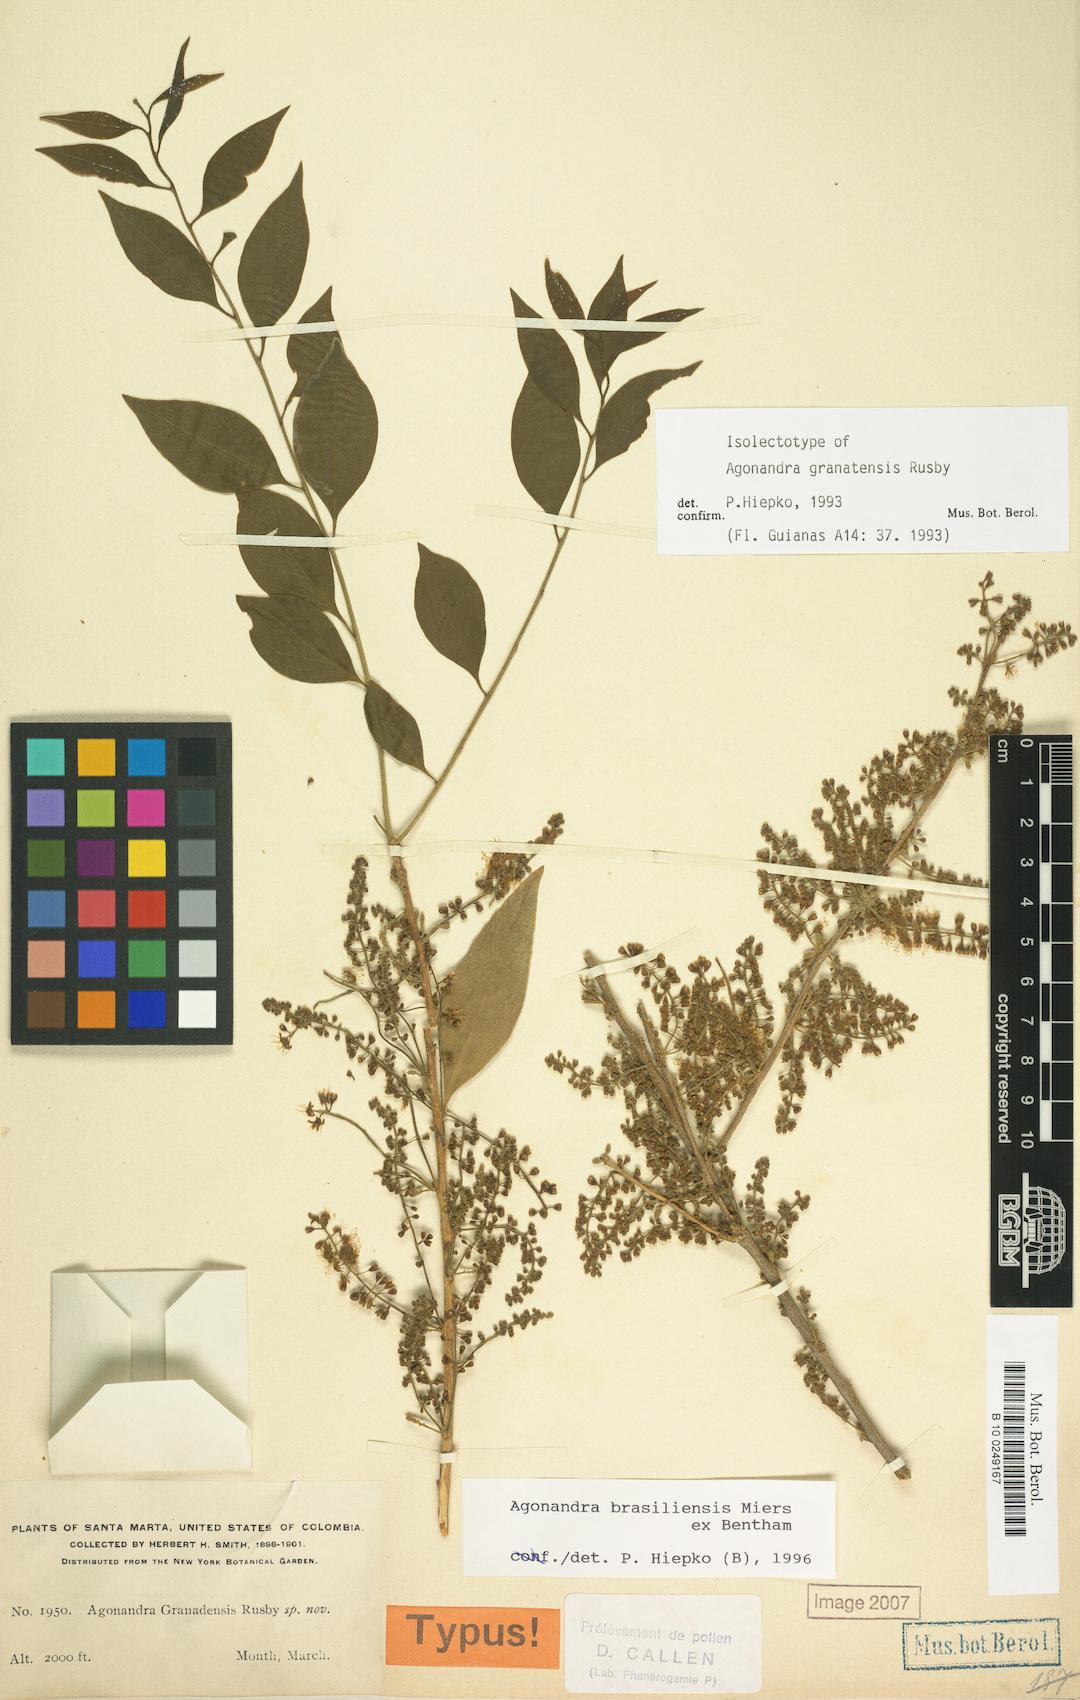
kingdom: Plantae
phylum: Tracheophyta
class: Magnoliopsida
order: Santalales
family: Opiliaceae
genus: Agonandra
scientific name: Agonandra brasiliensis
